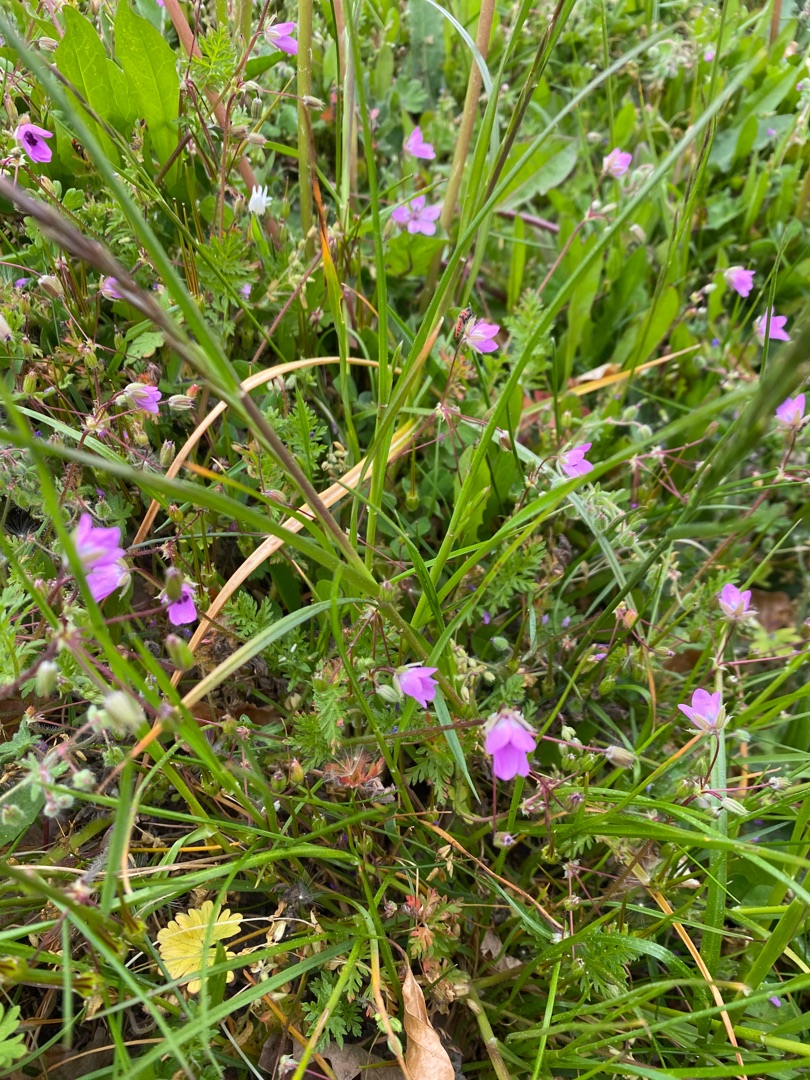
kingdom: Plantae
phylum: Tracheophyta
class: Magnoliopsida
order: Geraniales
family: Geraniaceae
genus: Erodium
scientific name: Erodium cicutarium
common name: Hejrenæb
